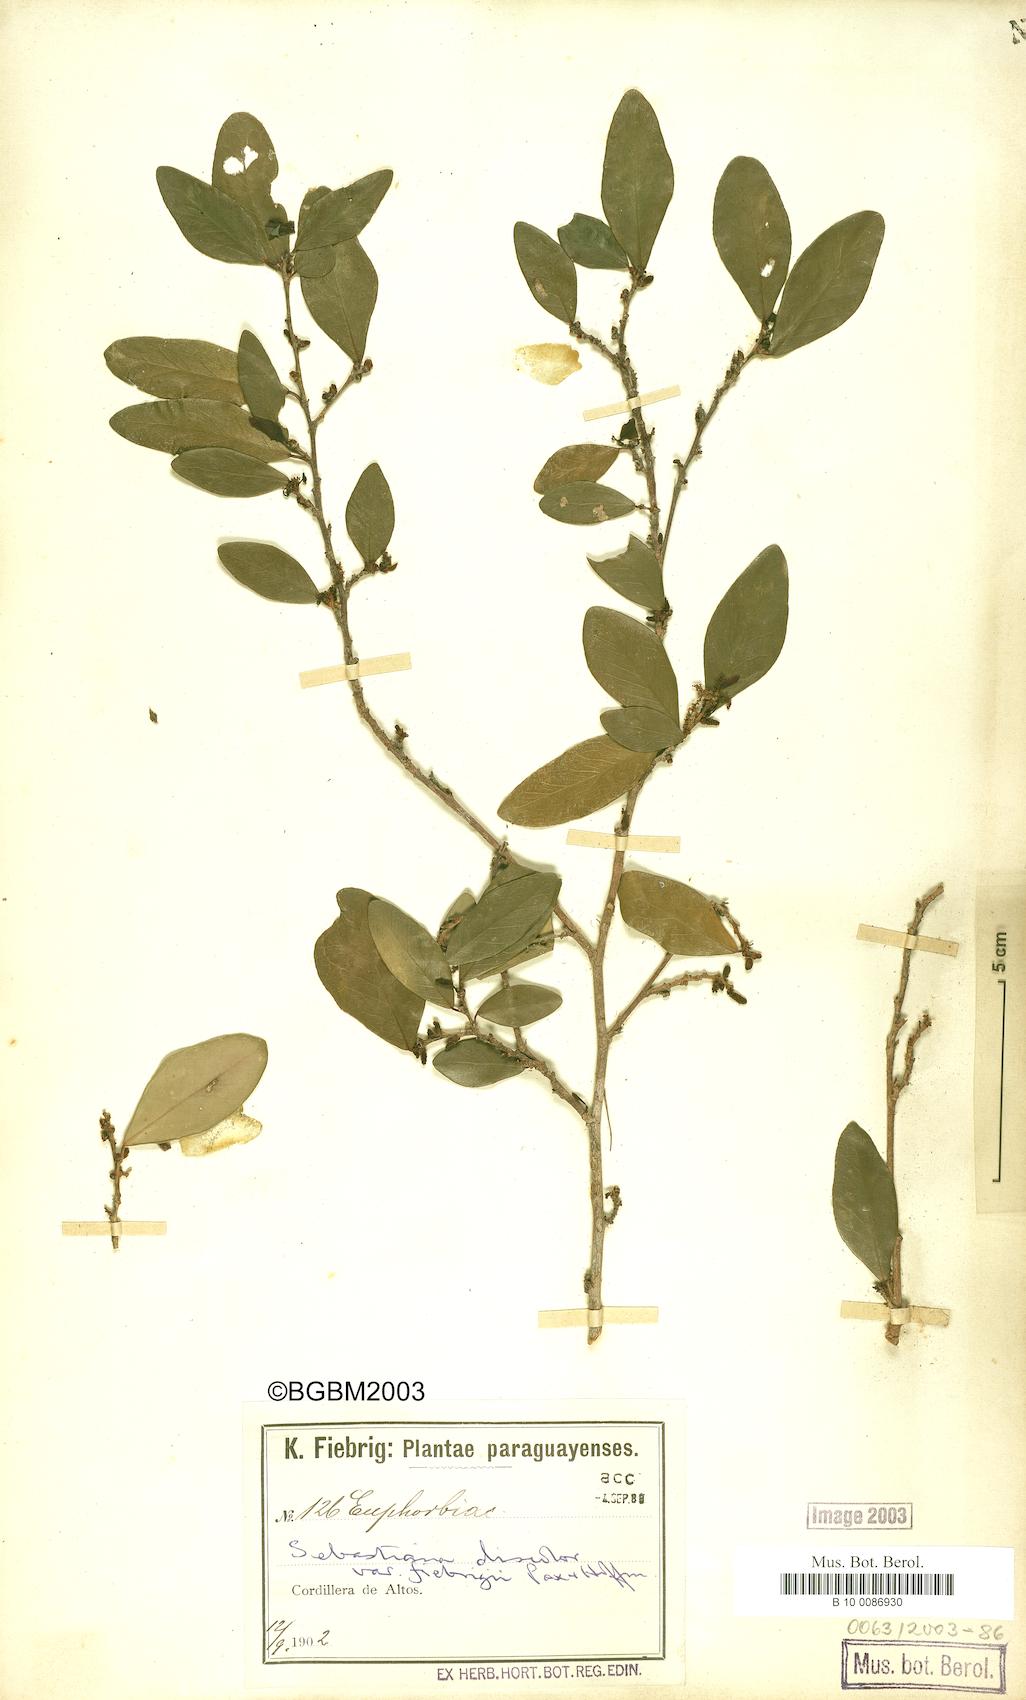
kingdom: Plantae
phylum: Tracheophyta
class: Magnoliopsida
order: Malpighiales
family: Euphorbiaceae
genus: Gymnanthes
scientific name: Gymnanthes discolor
